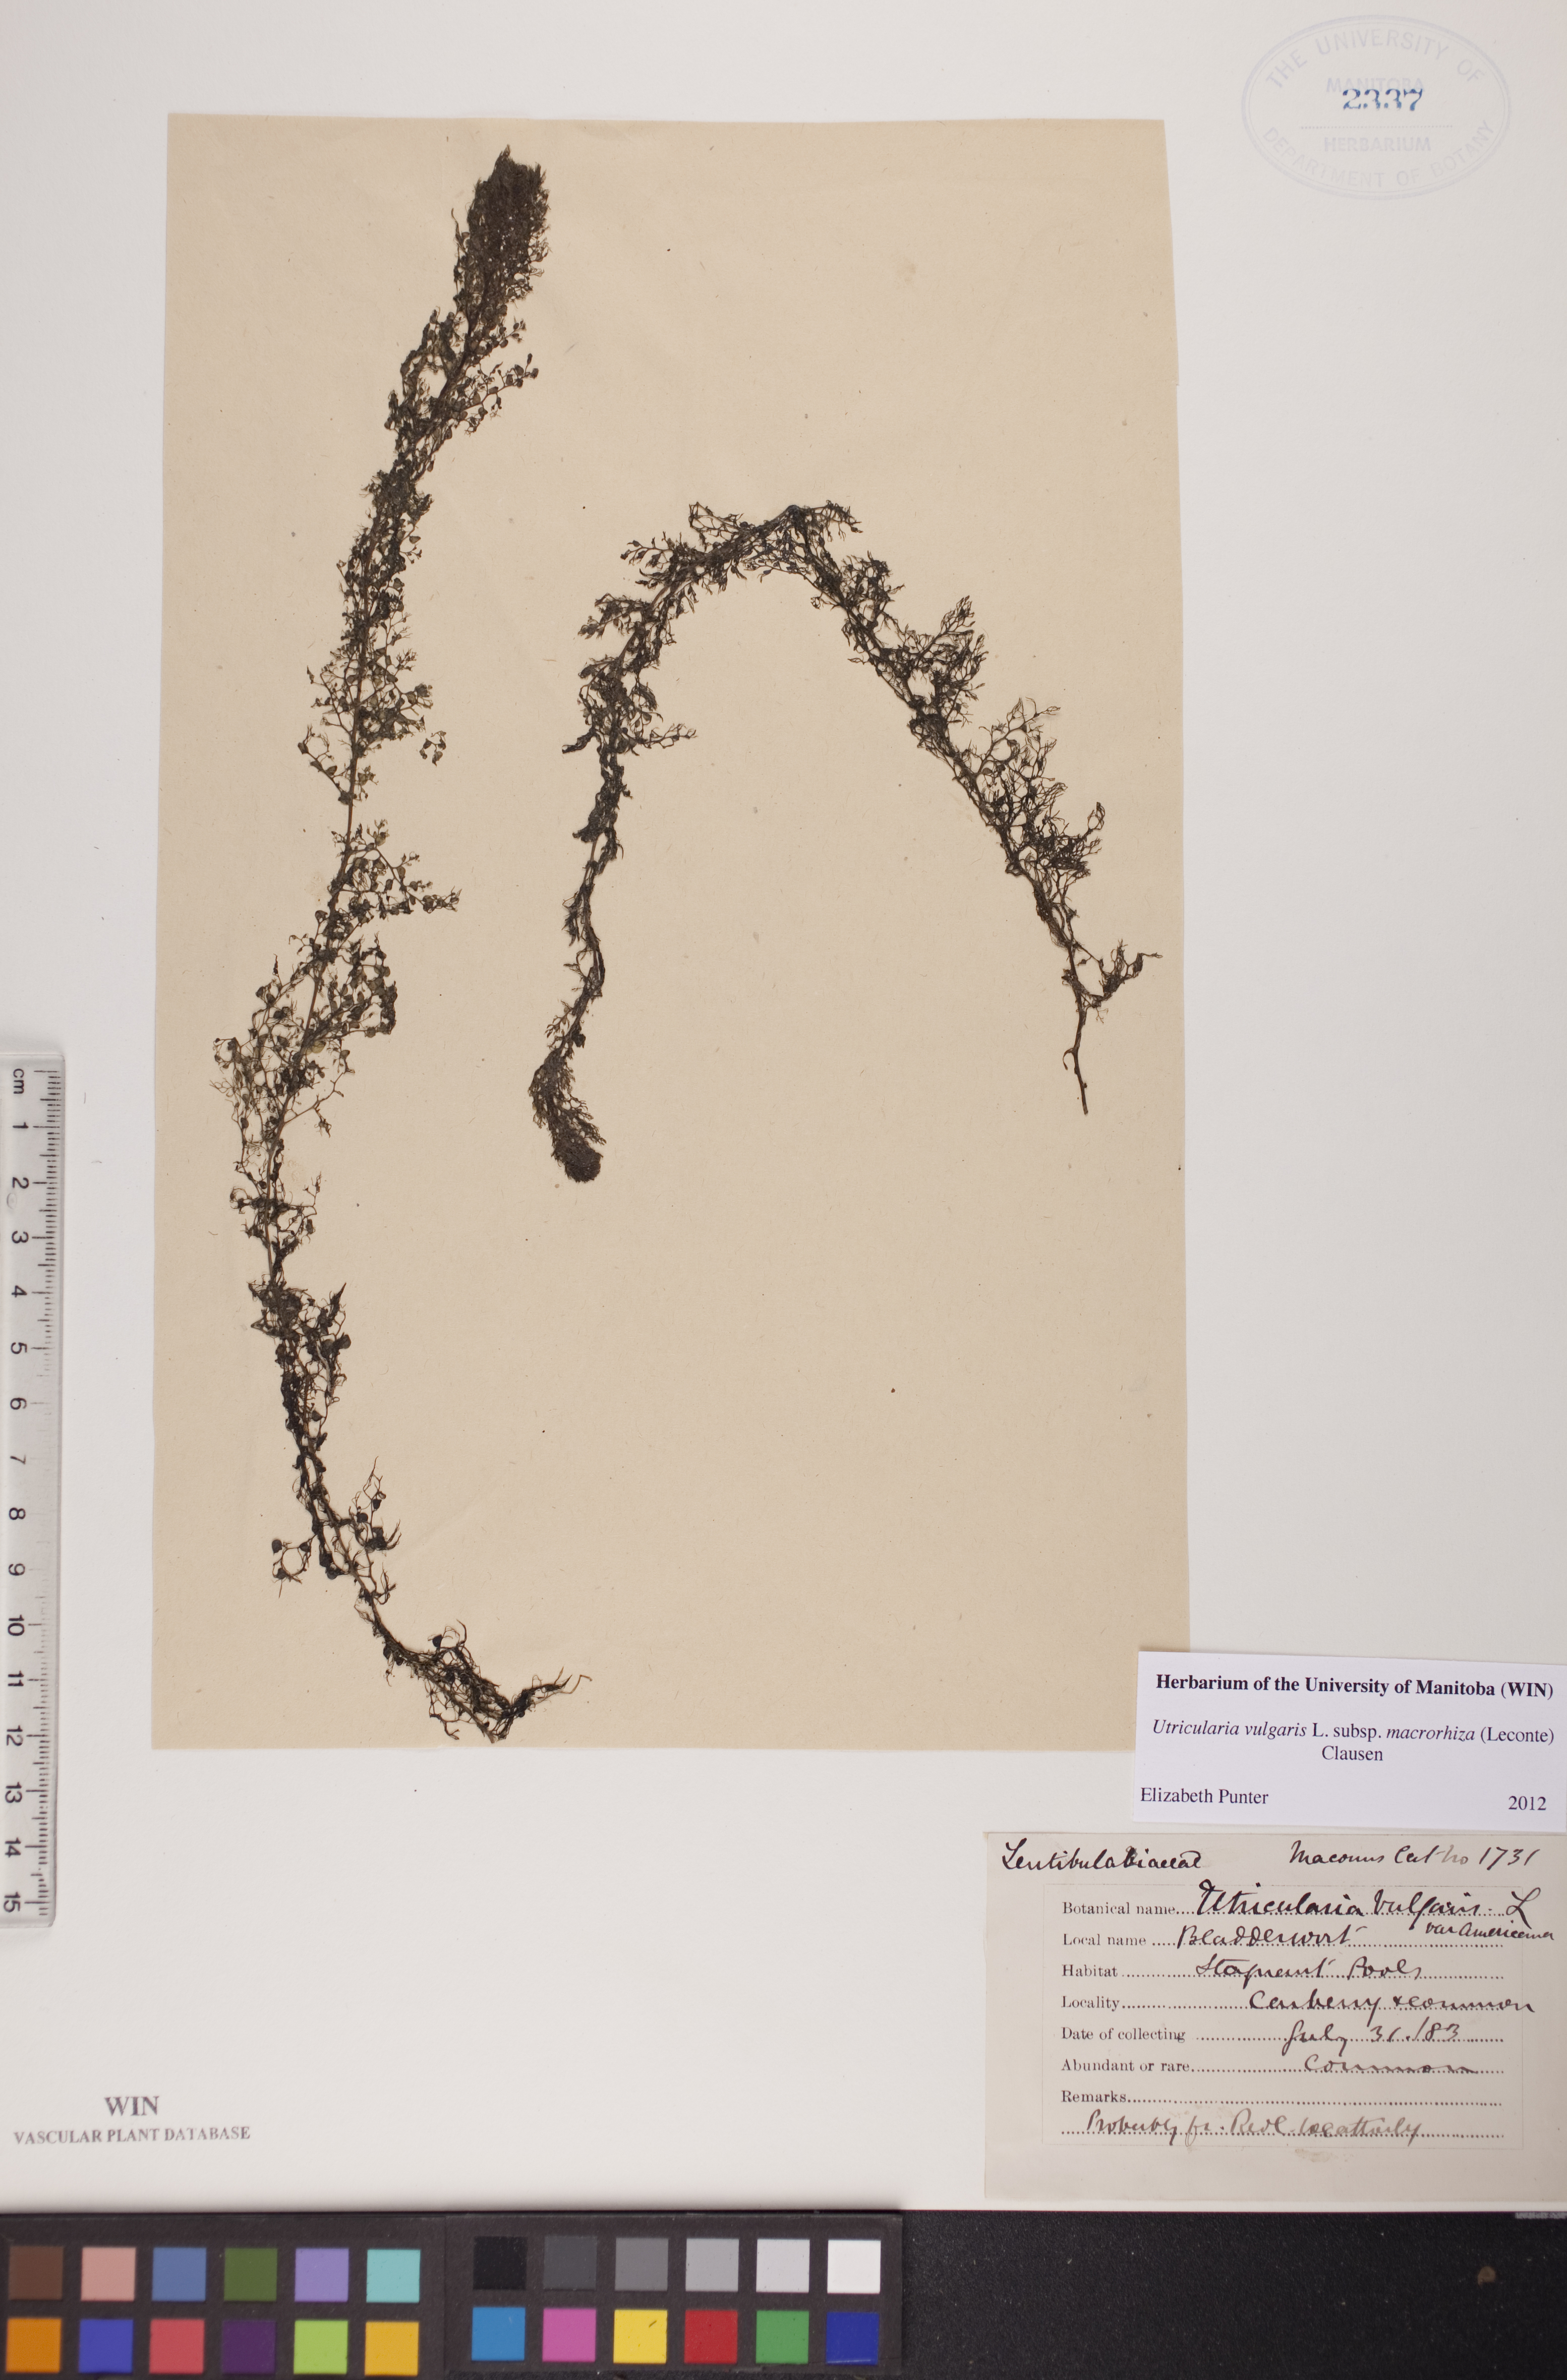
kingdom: Plantae
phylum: Tracheophyta
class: Magnoliopsida
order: Lamiales
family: Lentibulariaceae
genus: Utricularia
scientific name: Utricularia macrorhiza
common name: Common bladderwort
